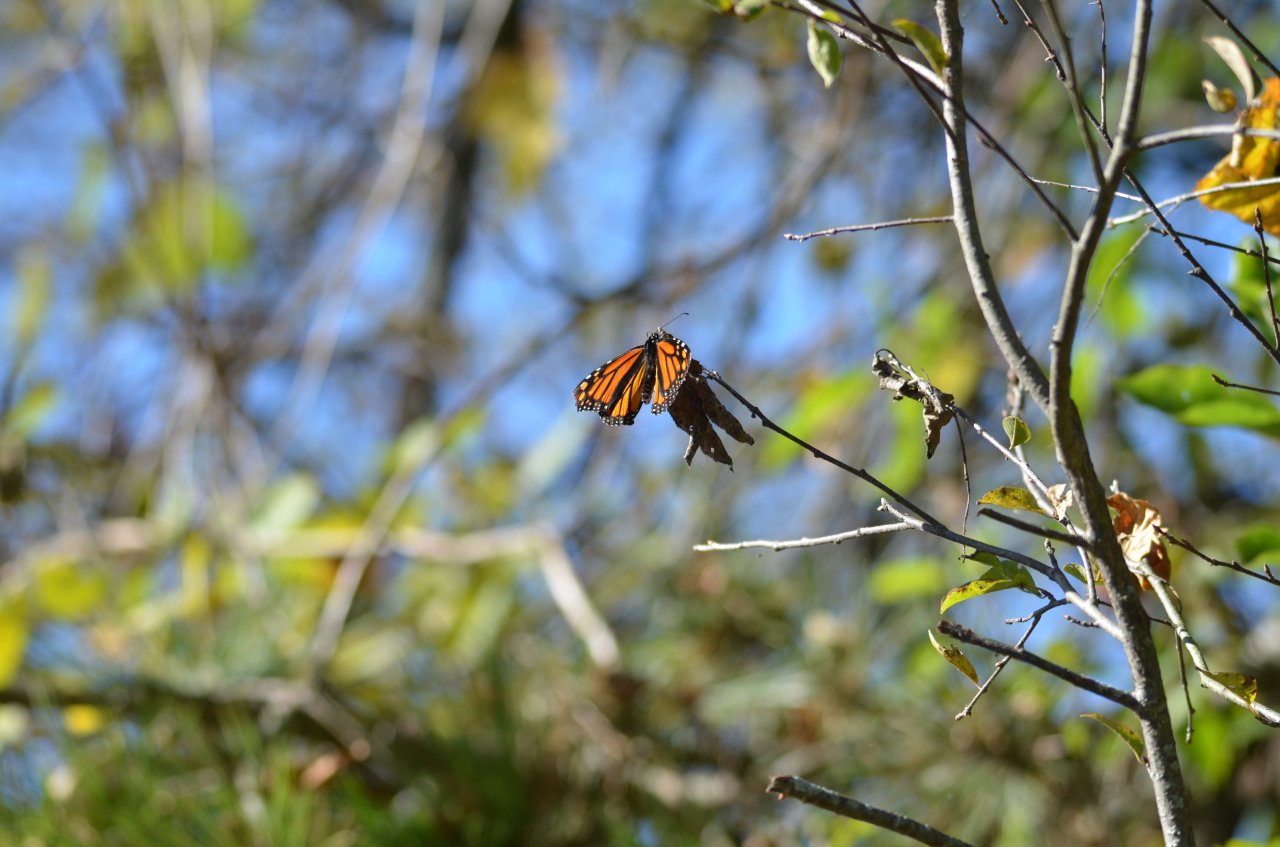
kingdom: Animalia
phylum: Arthropoda
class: Insecta
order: Lepidoptera
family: Nymphalidae
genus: Danaus
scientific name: Danaus plexippus
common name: Monarch
